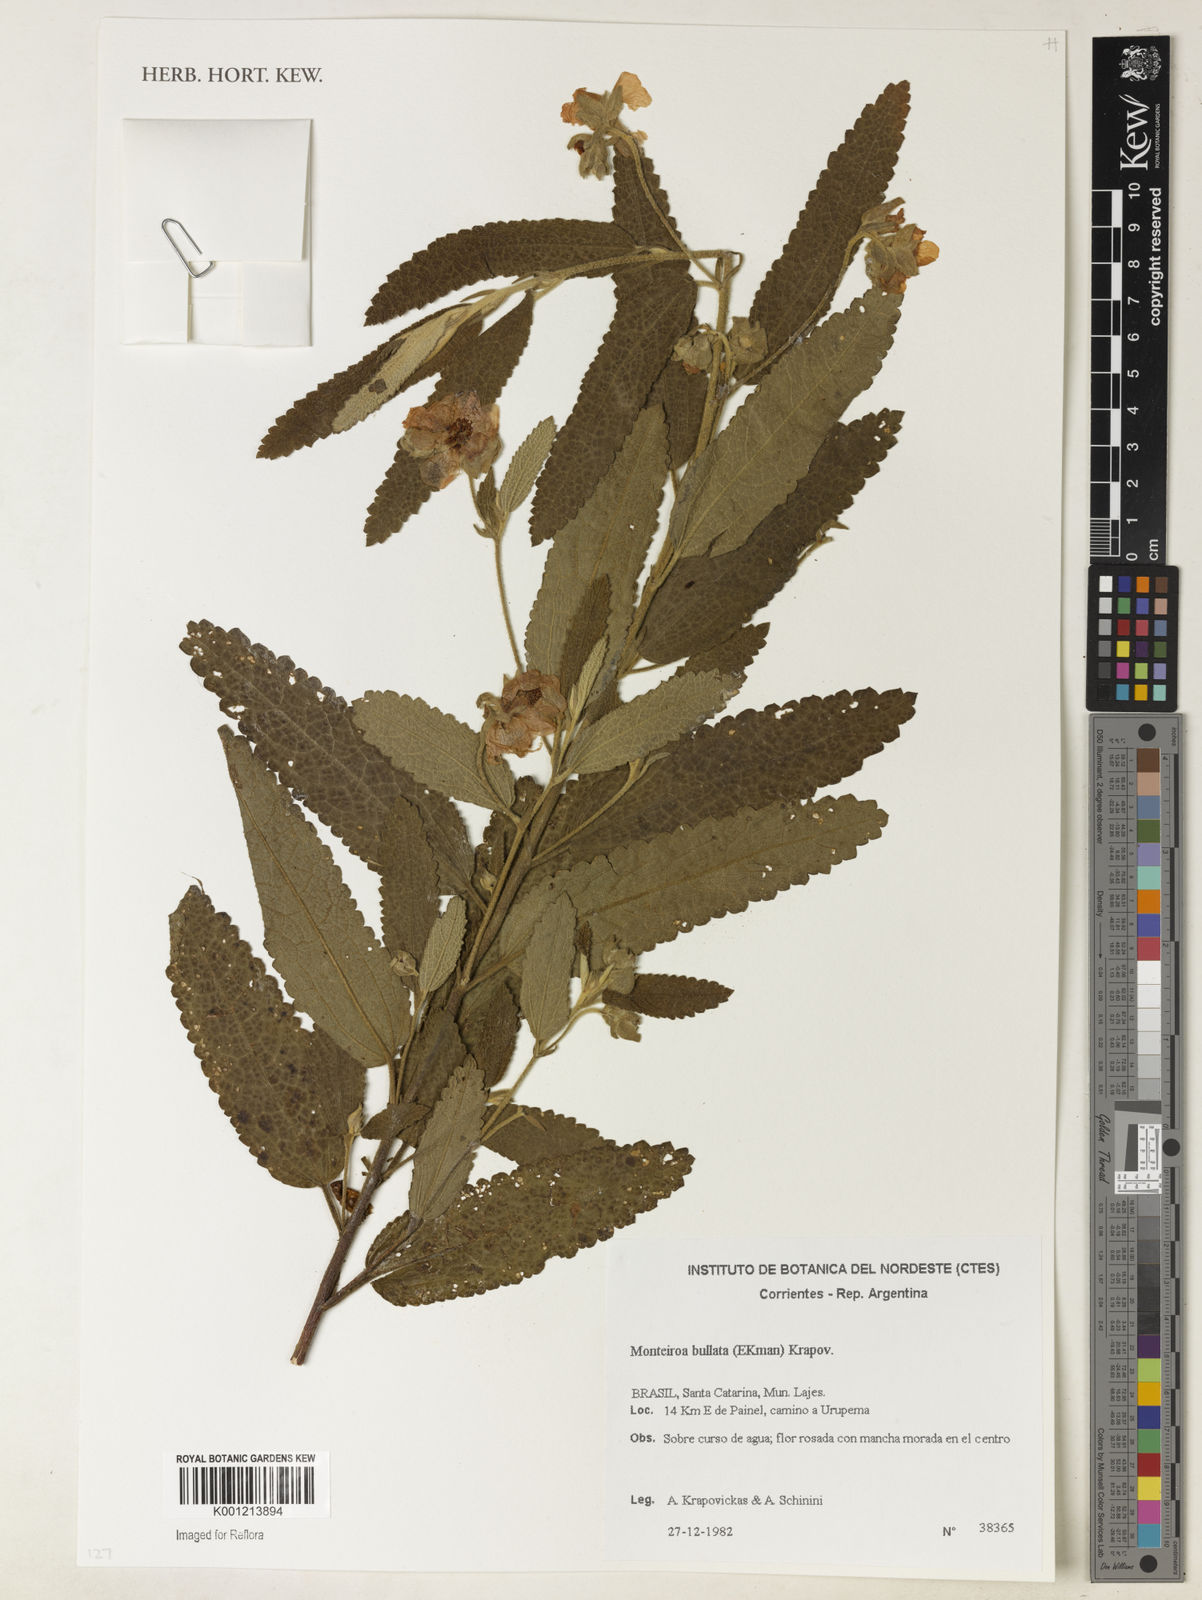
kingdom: Plantae
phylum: Tracheophyta
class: Magnoliopsida
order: Malvales
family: Malvaceae
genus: Monteiroa
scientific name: Monteiroa bullata
